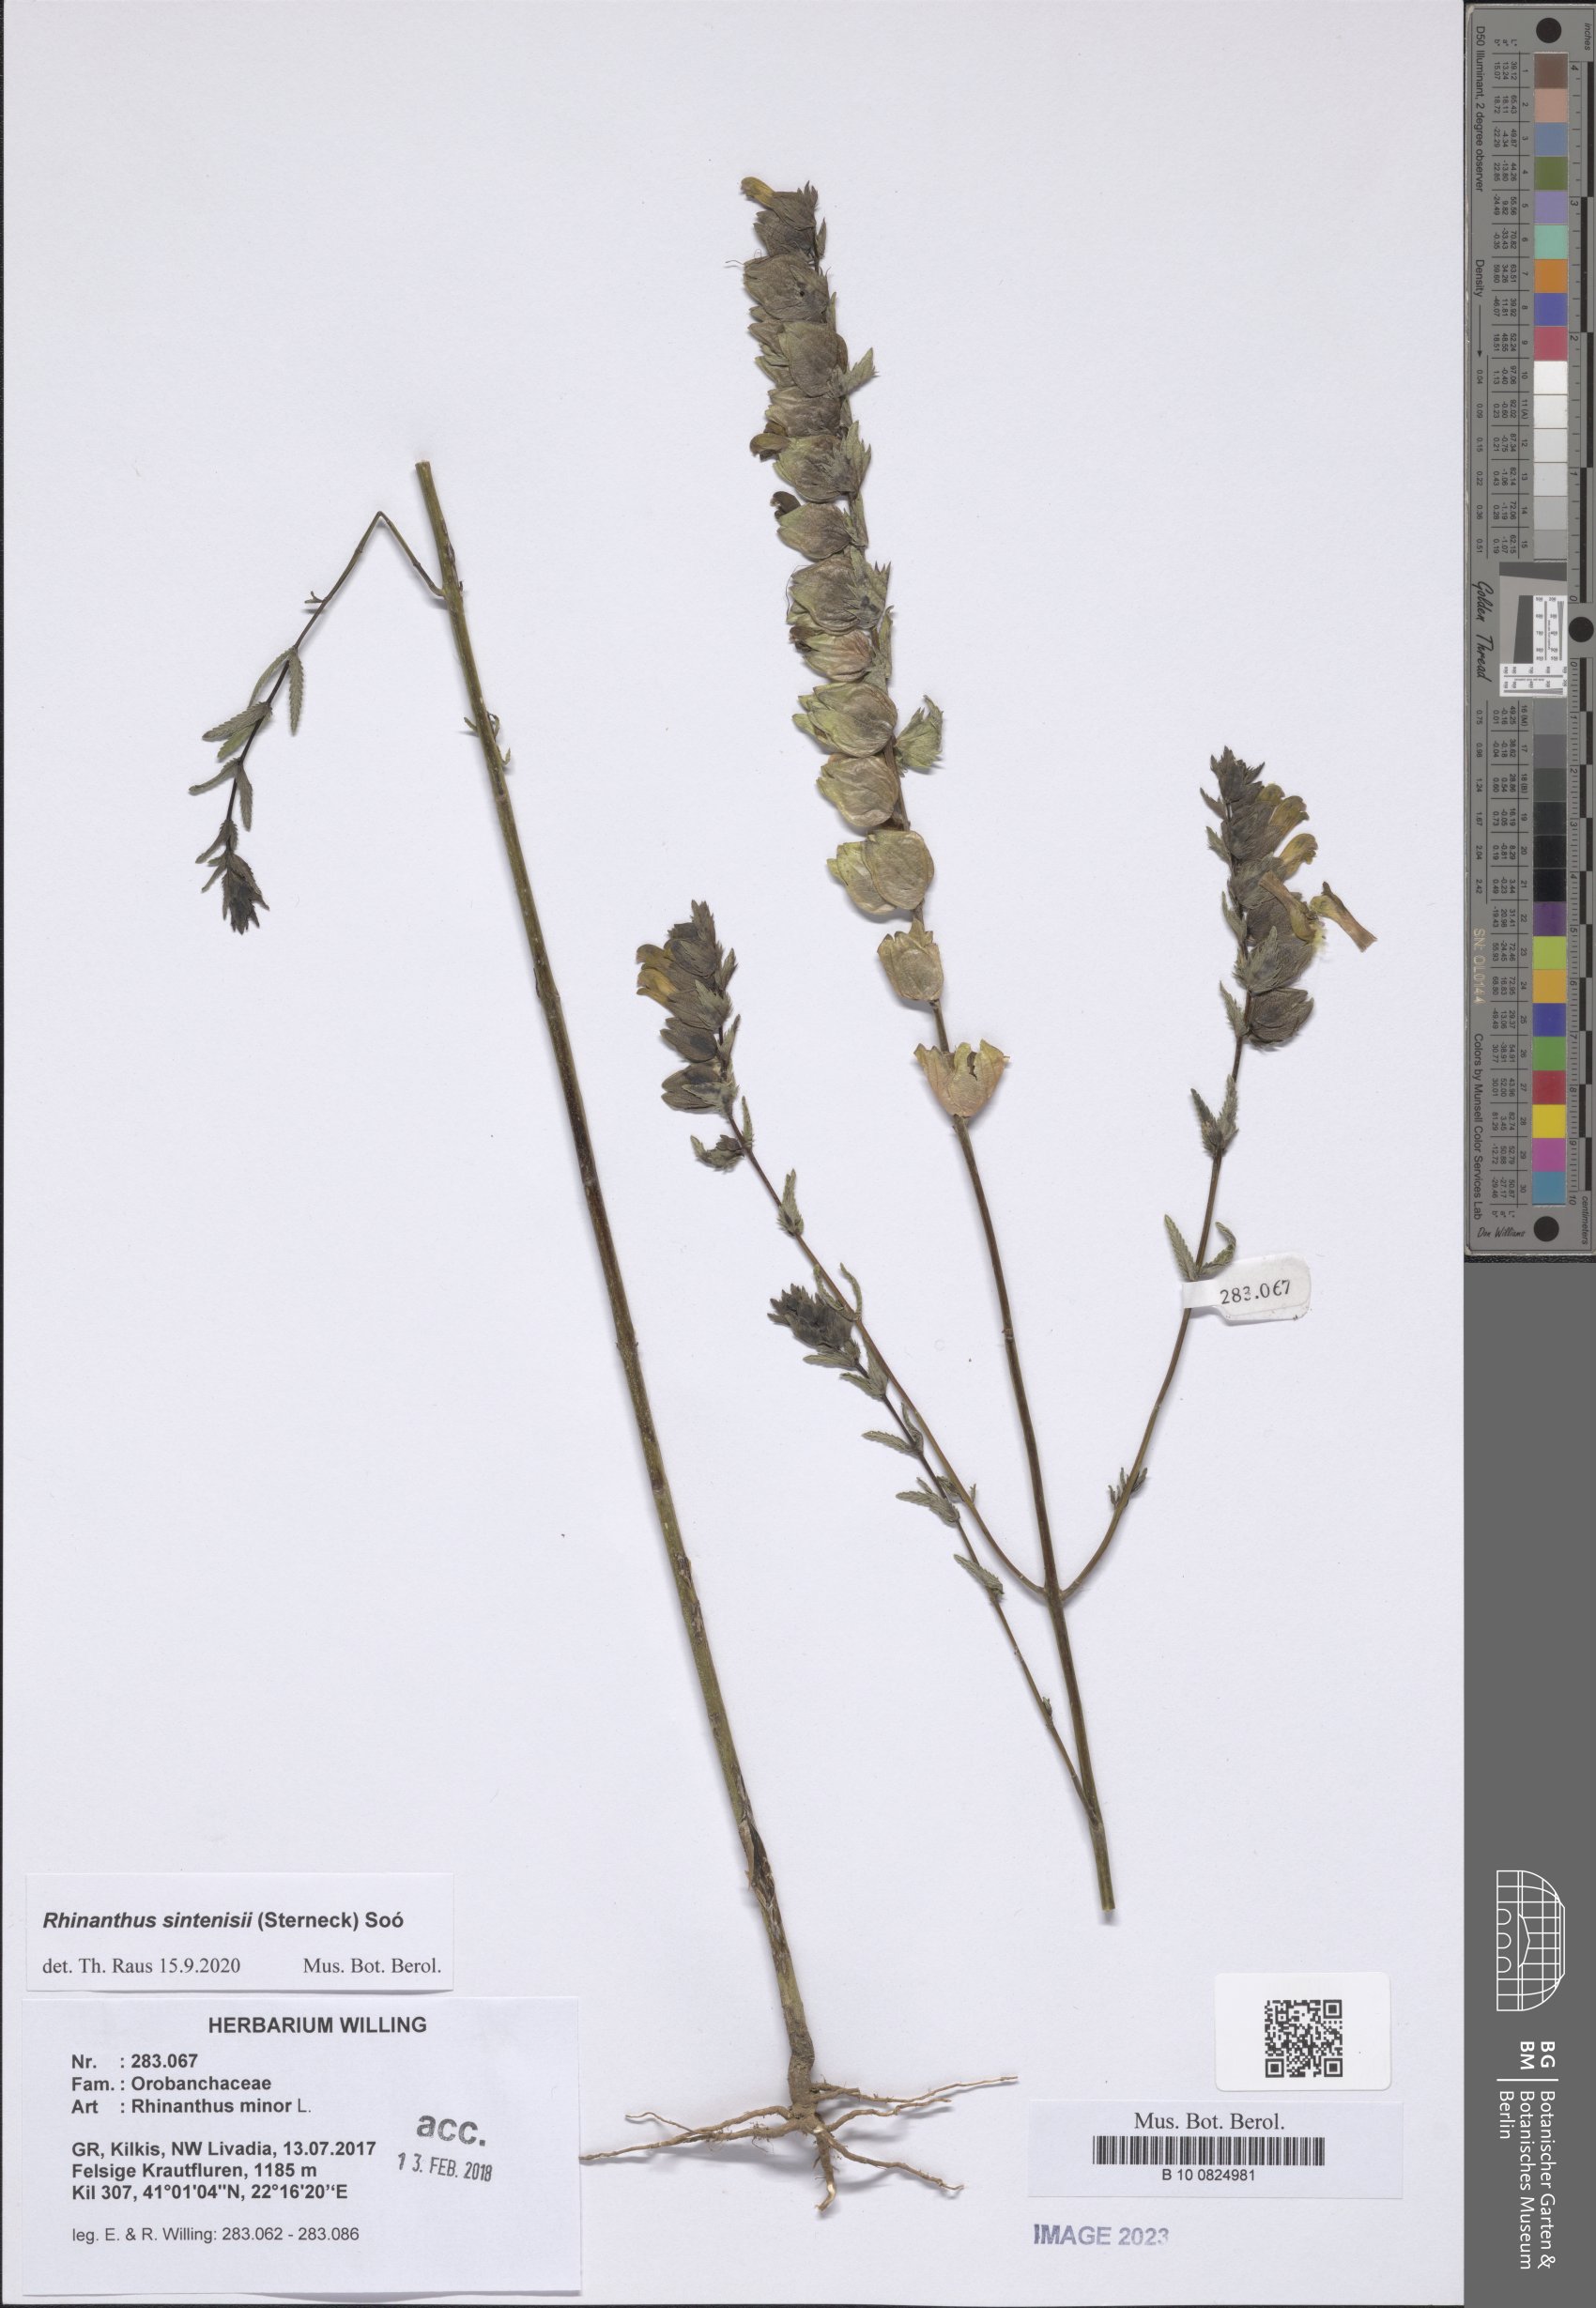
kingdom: Plantae
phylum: Tracheophyta
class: Magnoliopsida
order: Lamiales
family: Orobanchaceae
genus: Rhinanthus
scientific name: Rhinanthus sintenisii
